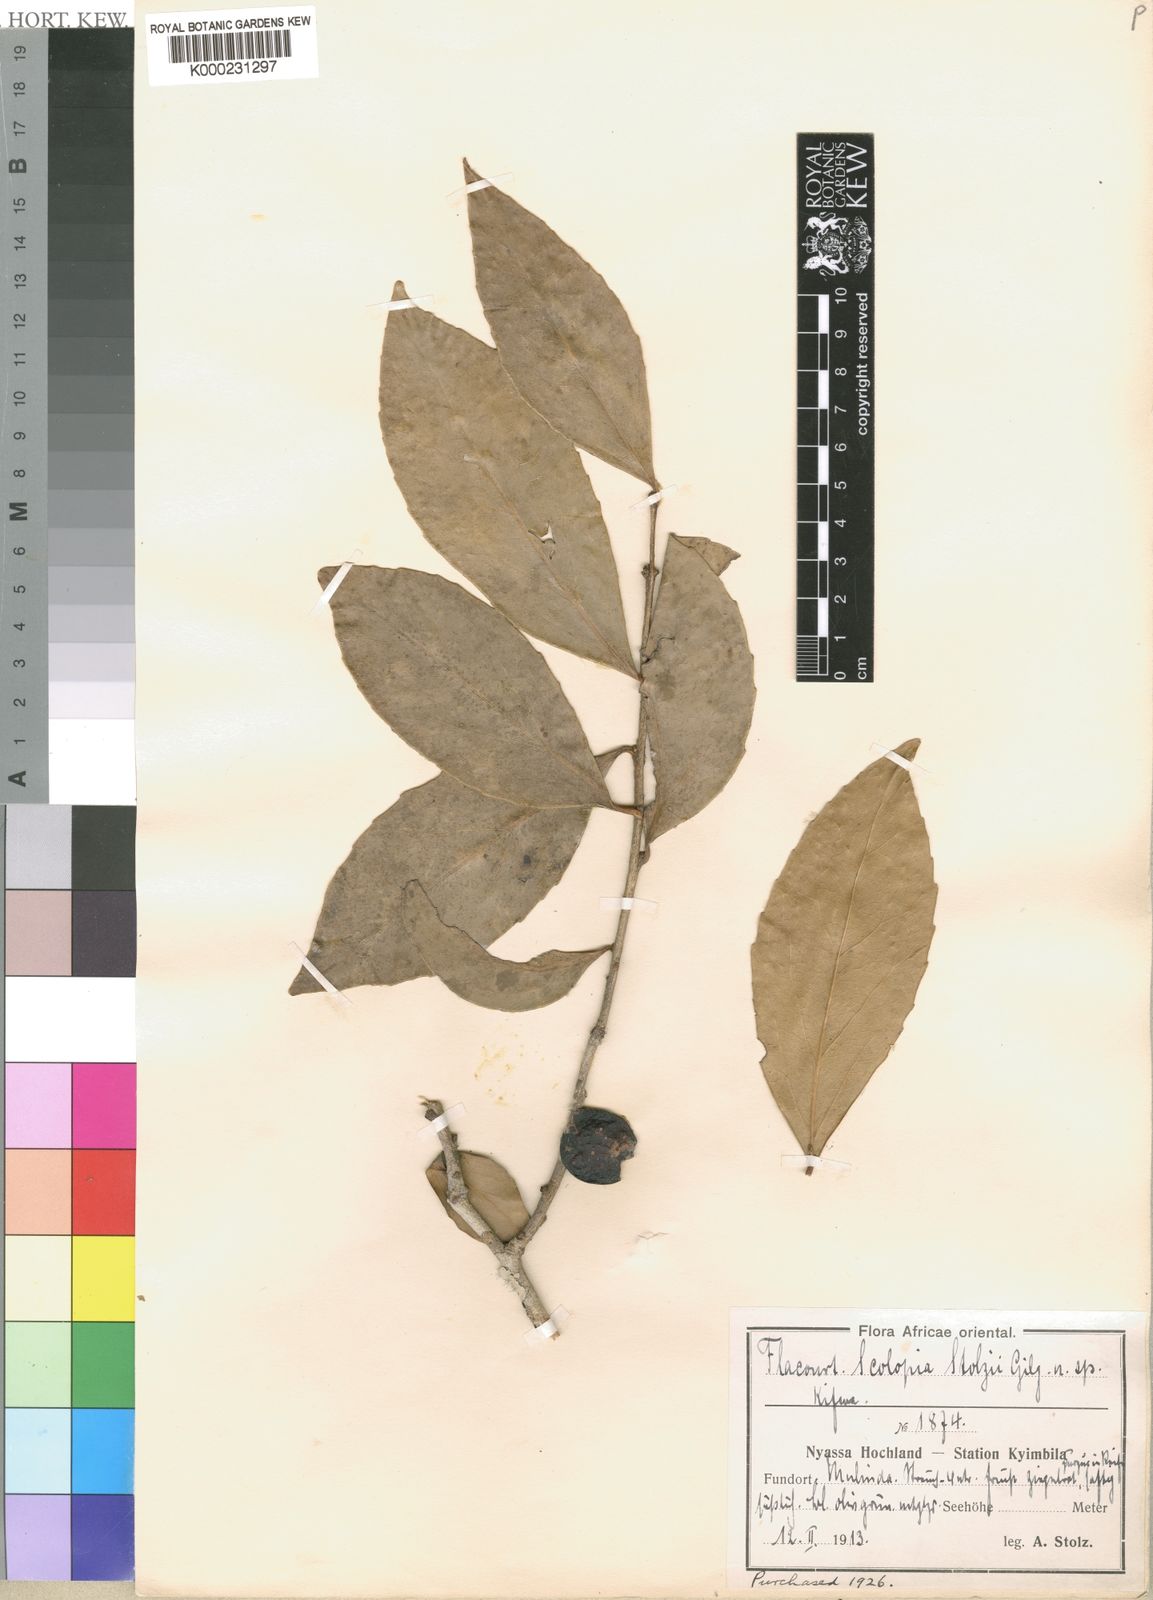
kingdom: Plantae
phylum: Tracheophyta
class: Magnoliopsida
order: Malpighiales
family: Salicaceae
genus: Scolopia
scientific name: Scolopia stolzii
